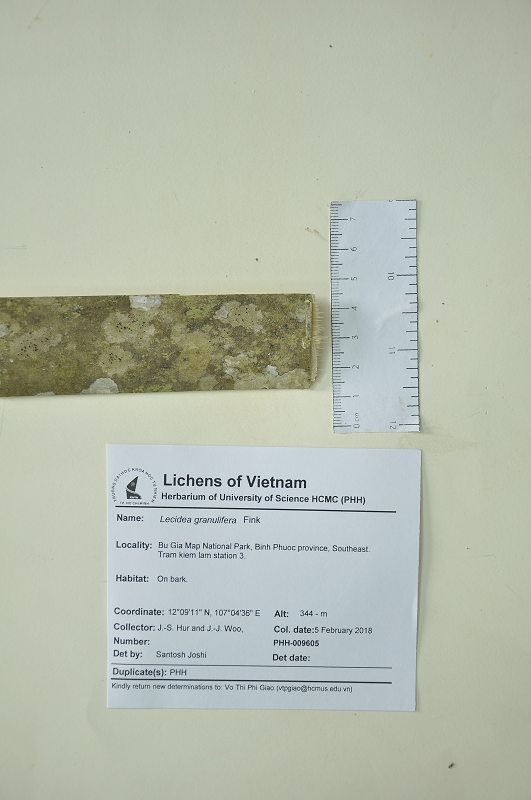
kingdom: Fungi
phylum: Ascomycota
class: Lecanoromycetes
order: Lecideales
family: Lecideaceae
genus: Lecidea
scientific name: Lecidea
